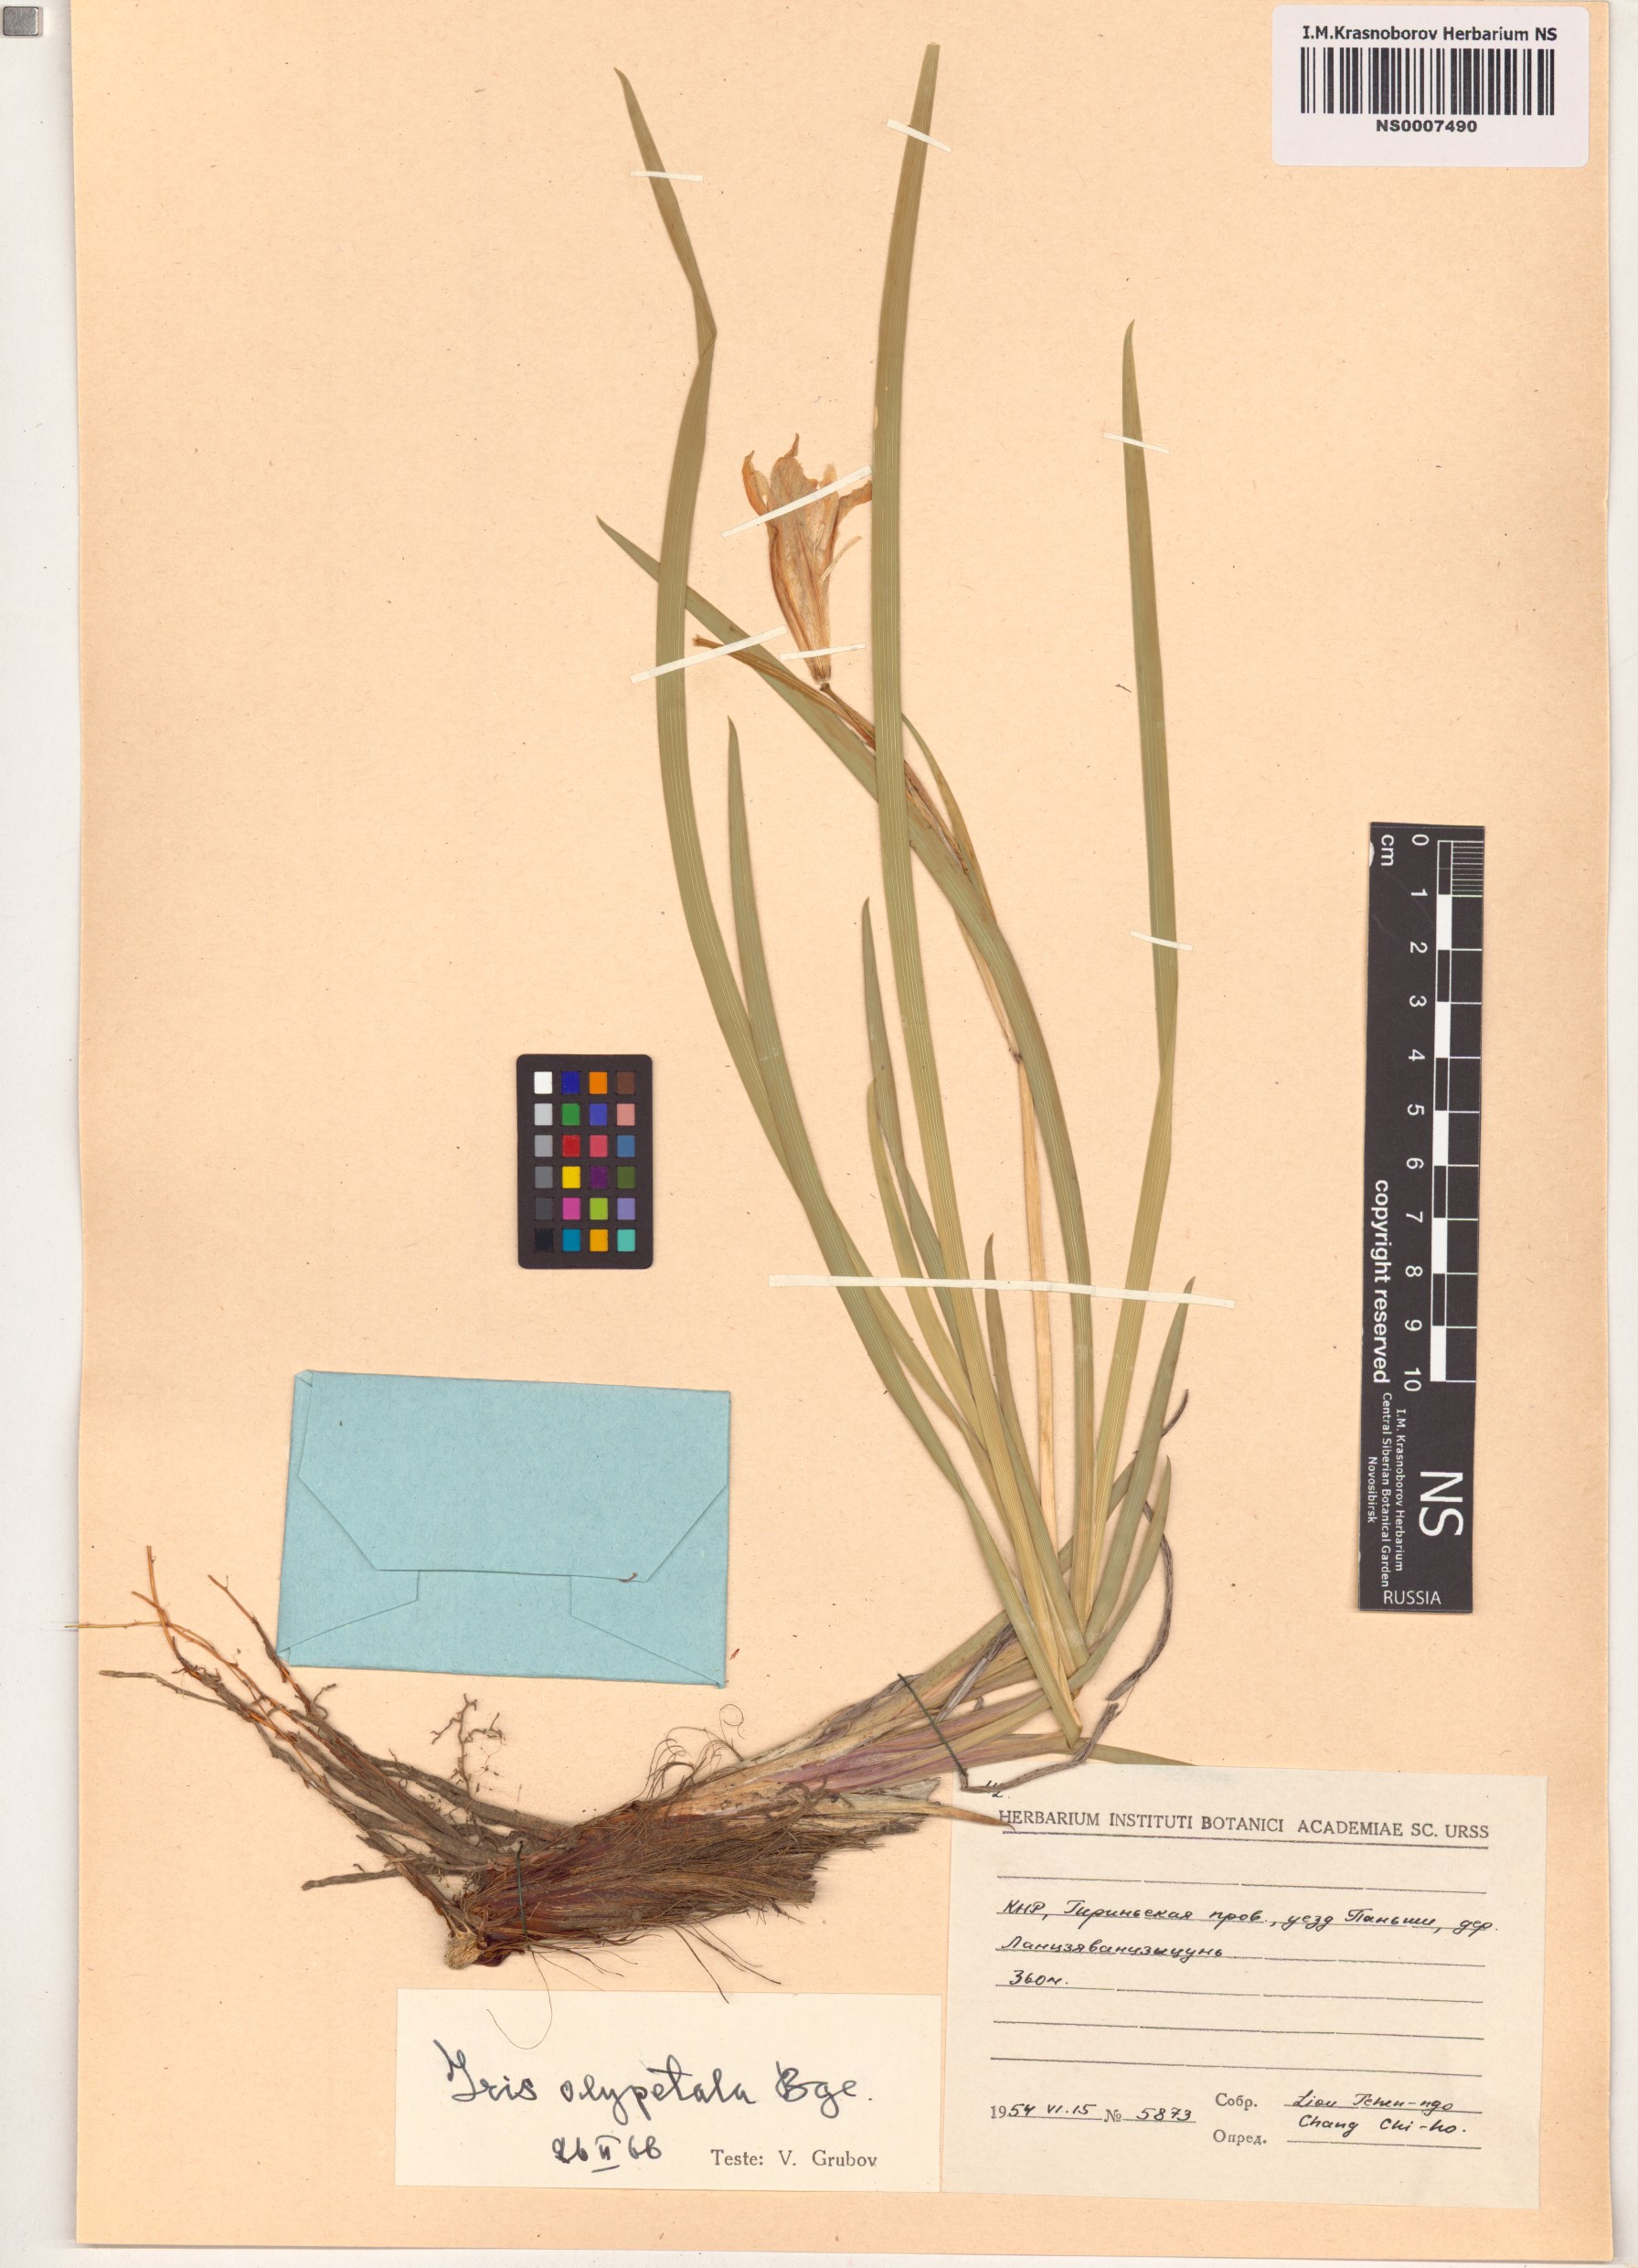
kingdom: Plantae
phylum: Tracheophyta
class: Liliopsida
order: Asparagales
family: Iridaceae
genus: Iris
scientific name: Iris oxypetala
